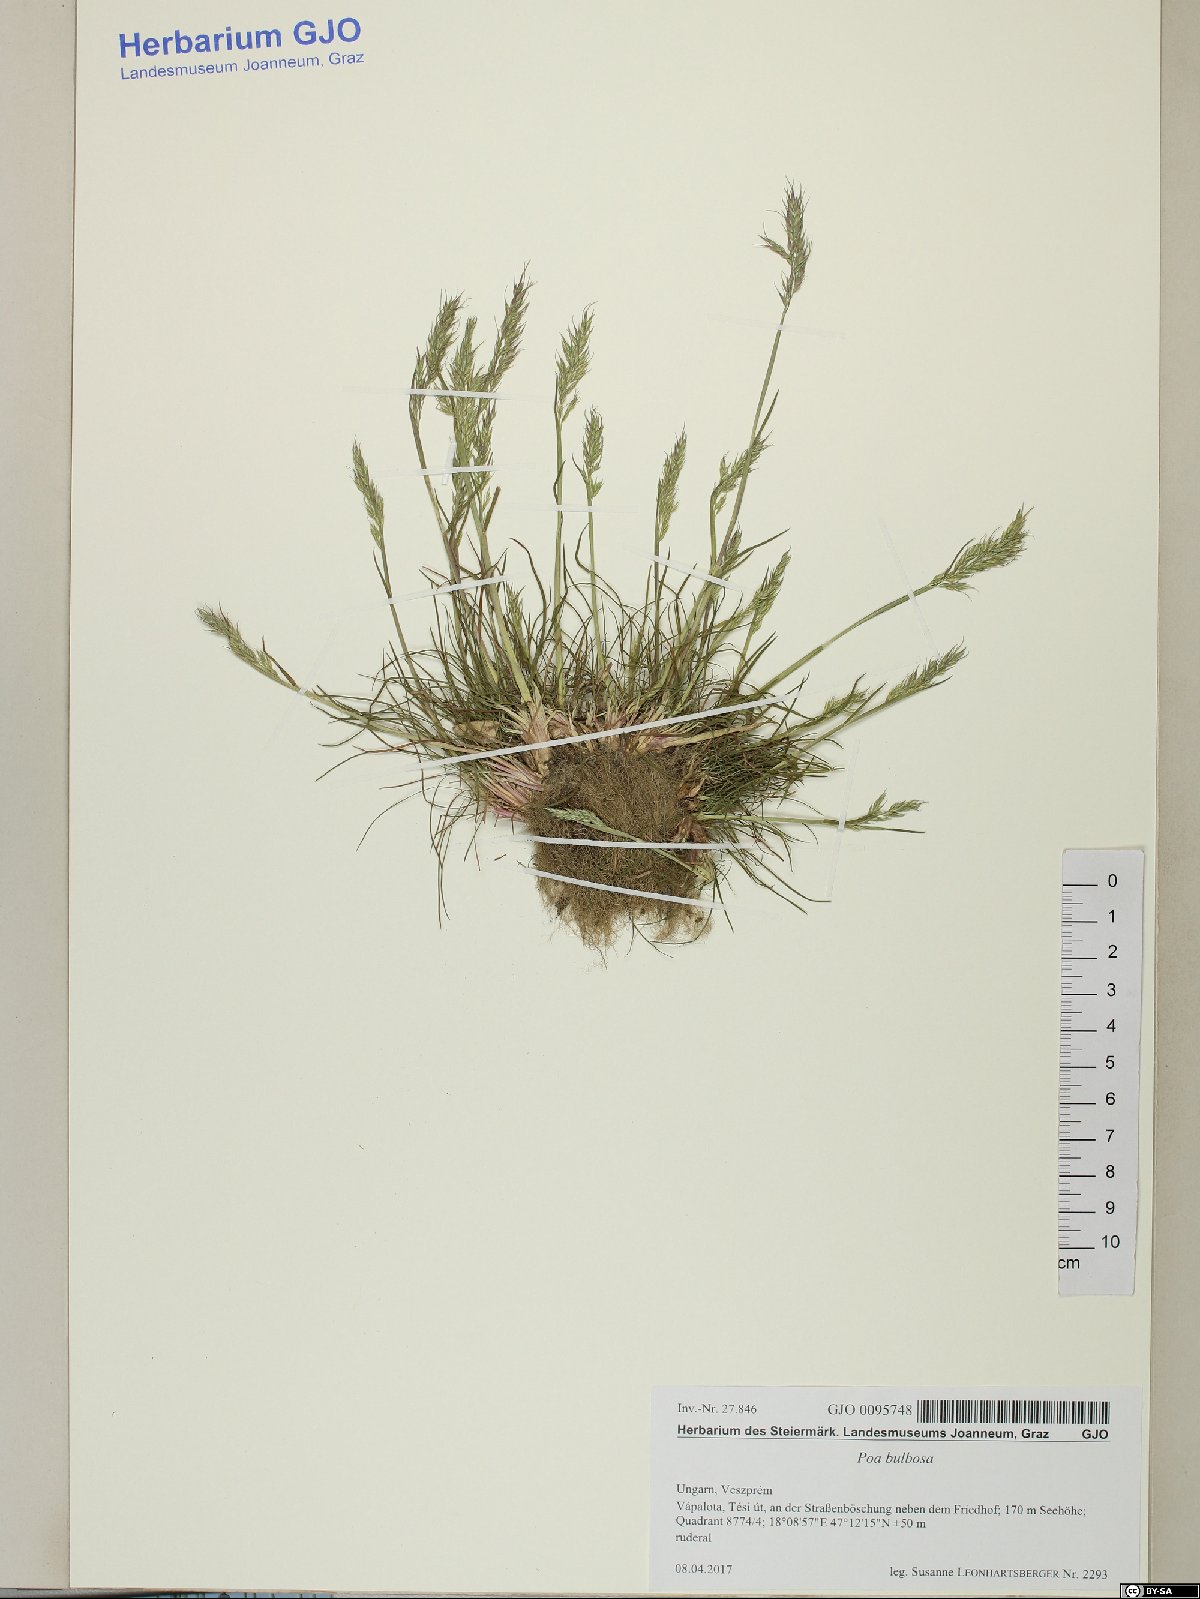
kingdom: Plantae
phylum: Tracheophyta
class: Liliopsida
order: Poales
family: Poaceae
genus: Poa
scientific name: Poa bulbosa
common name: Bulbous bluegrass
